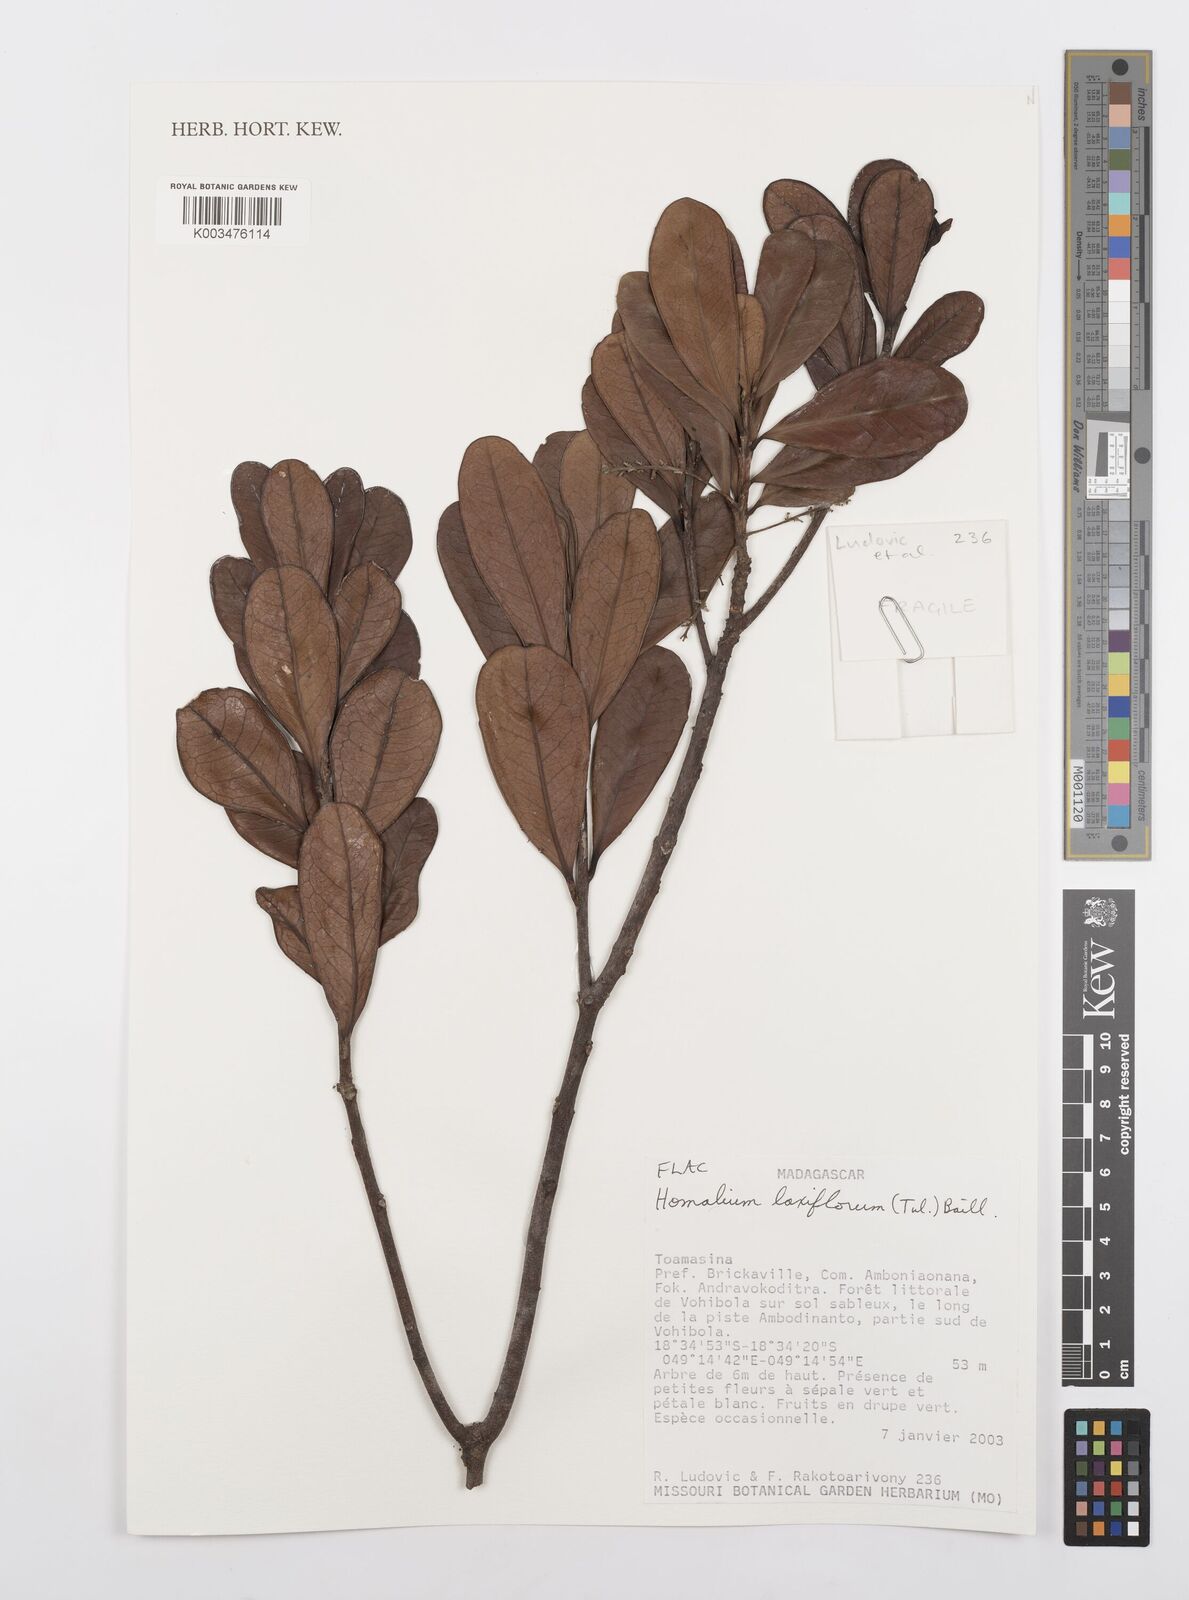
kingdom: Plantae
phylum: Tracheophyta
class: Magnoliopsida
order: Malpighiales
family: Salicaceae
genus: Homalium
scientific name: Homalium laxiflorum
